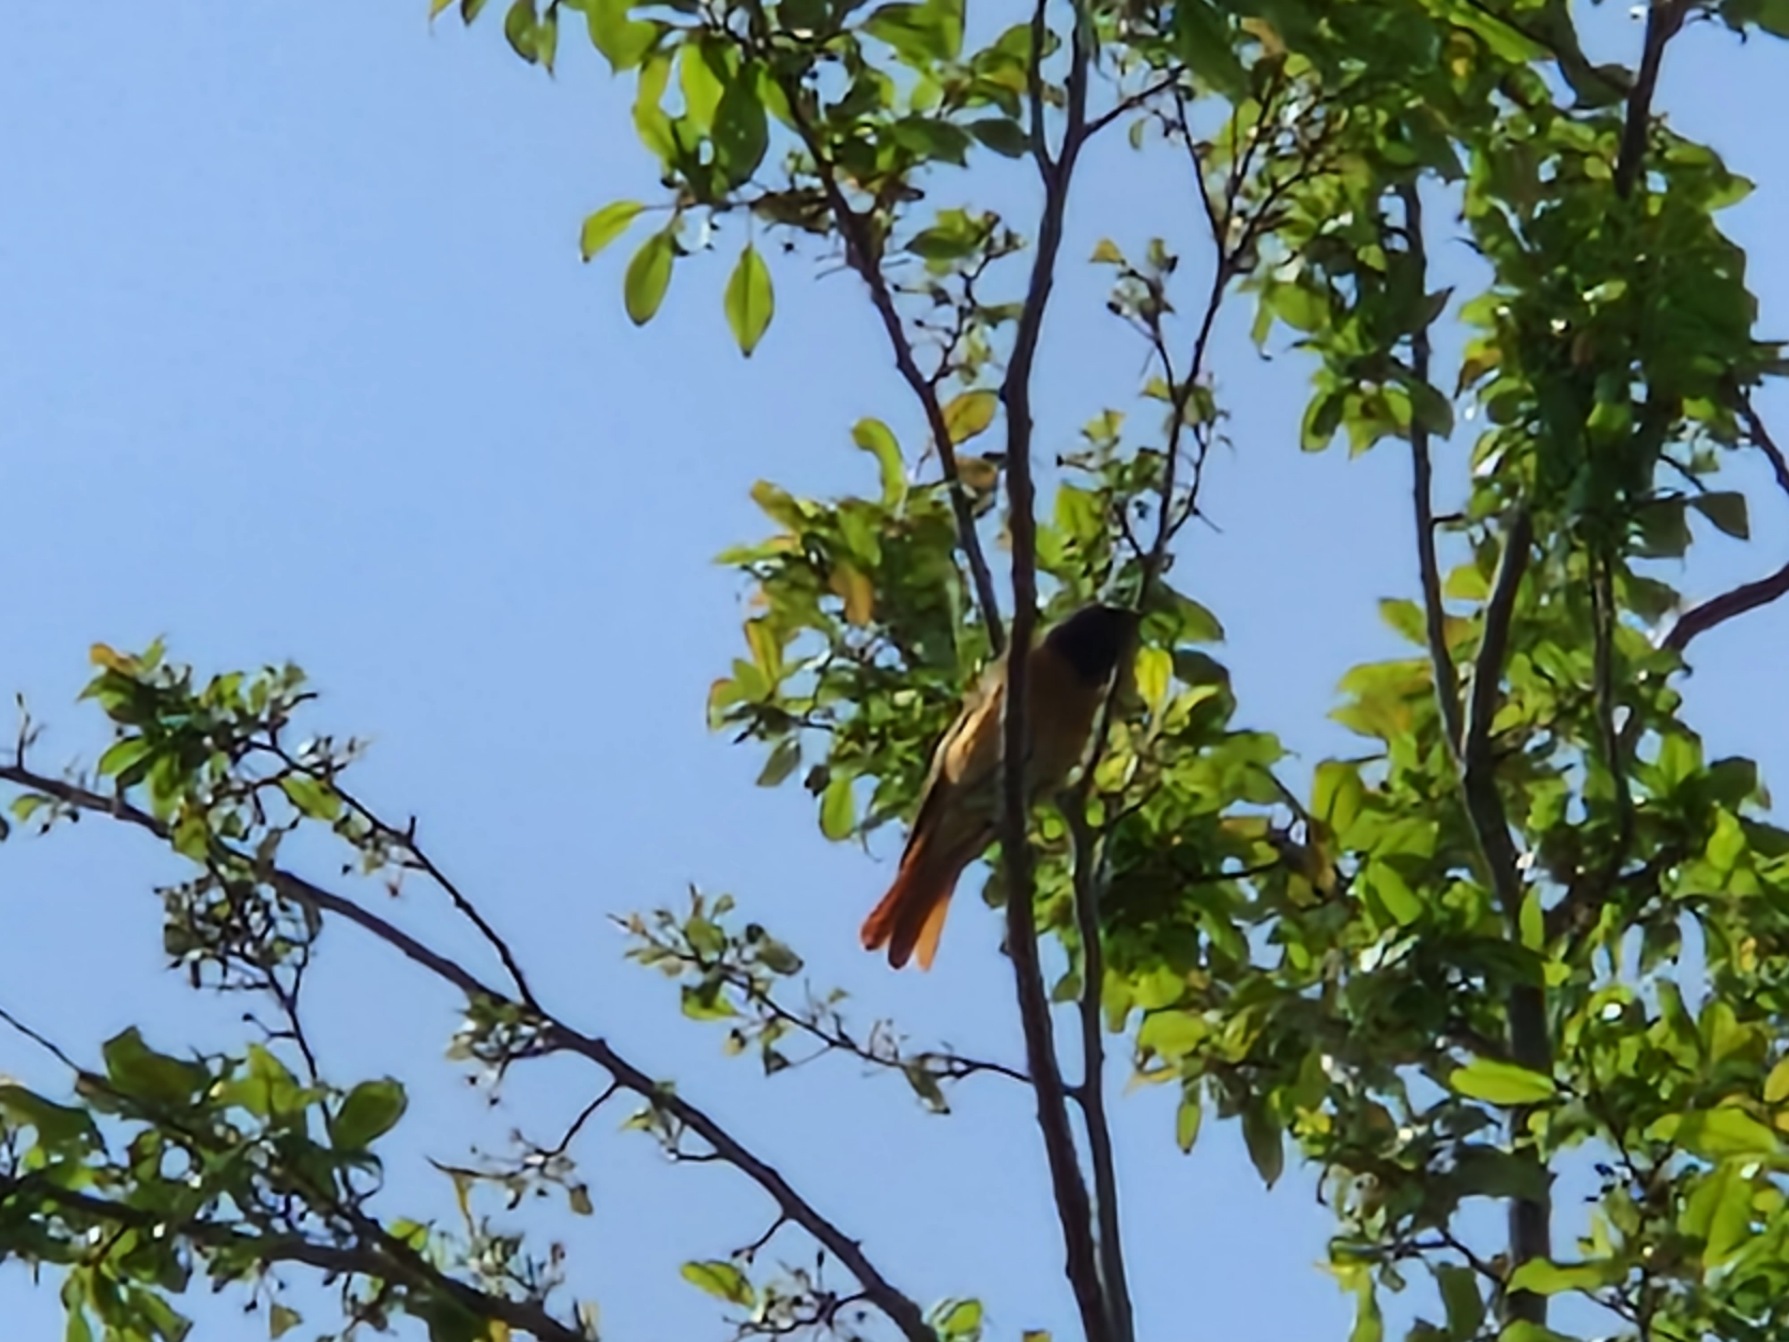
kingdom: Animalia
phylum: Chordata
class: Aves
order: Passeriformes
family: Muscicapidae
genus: Phoenicurus
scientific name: Phoenicurus phoenicurus
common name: Rødstjert
